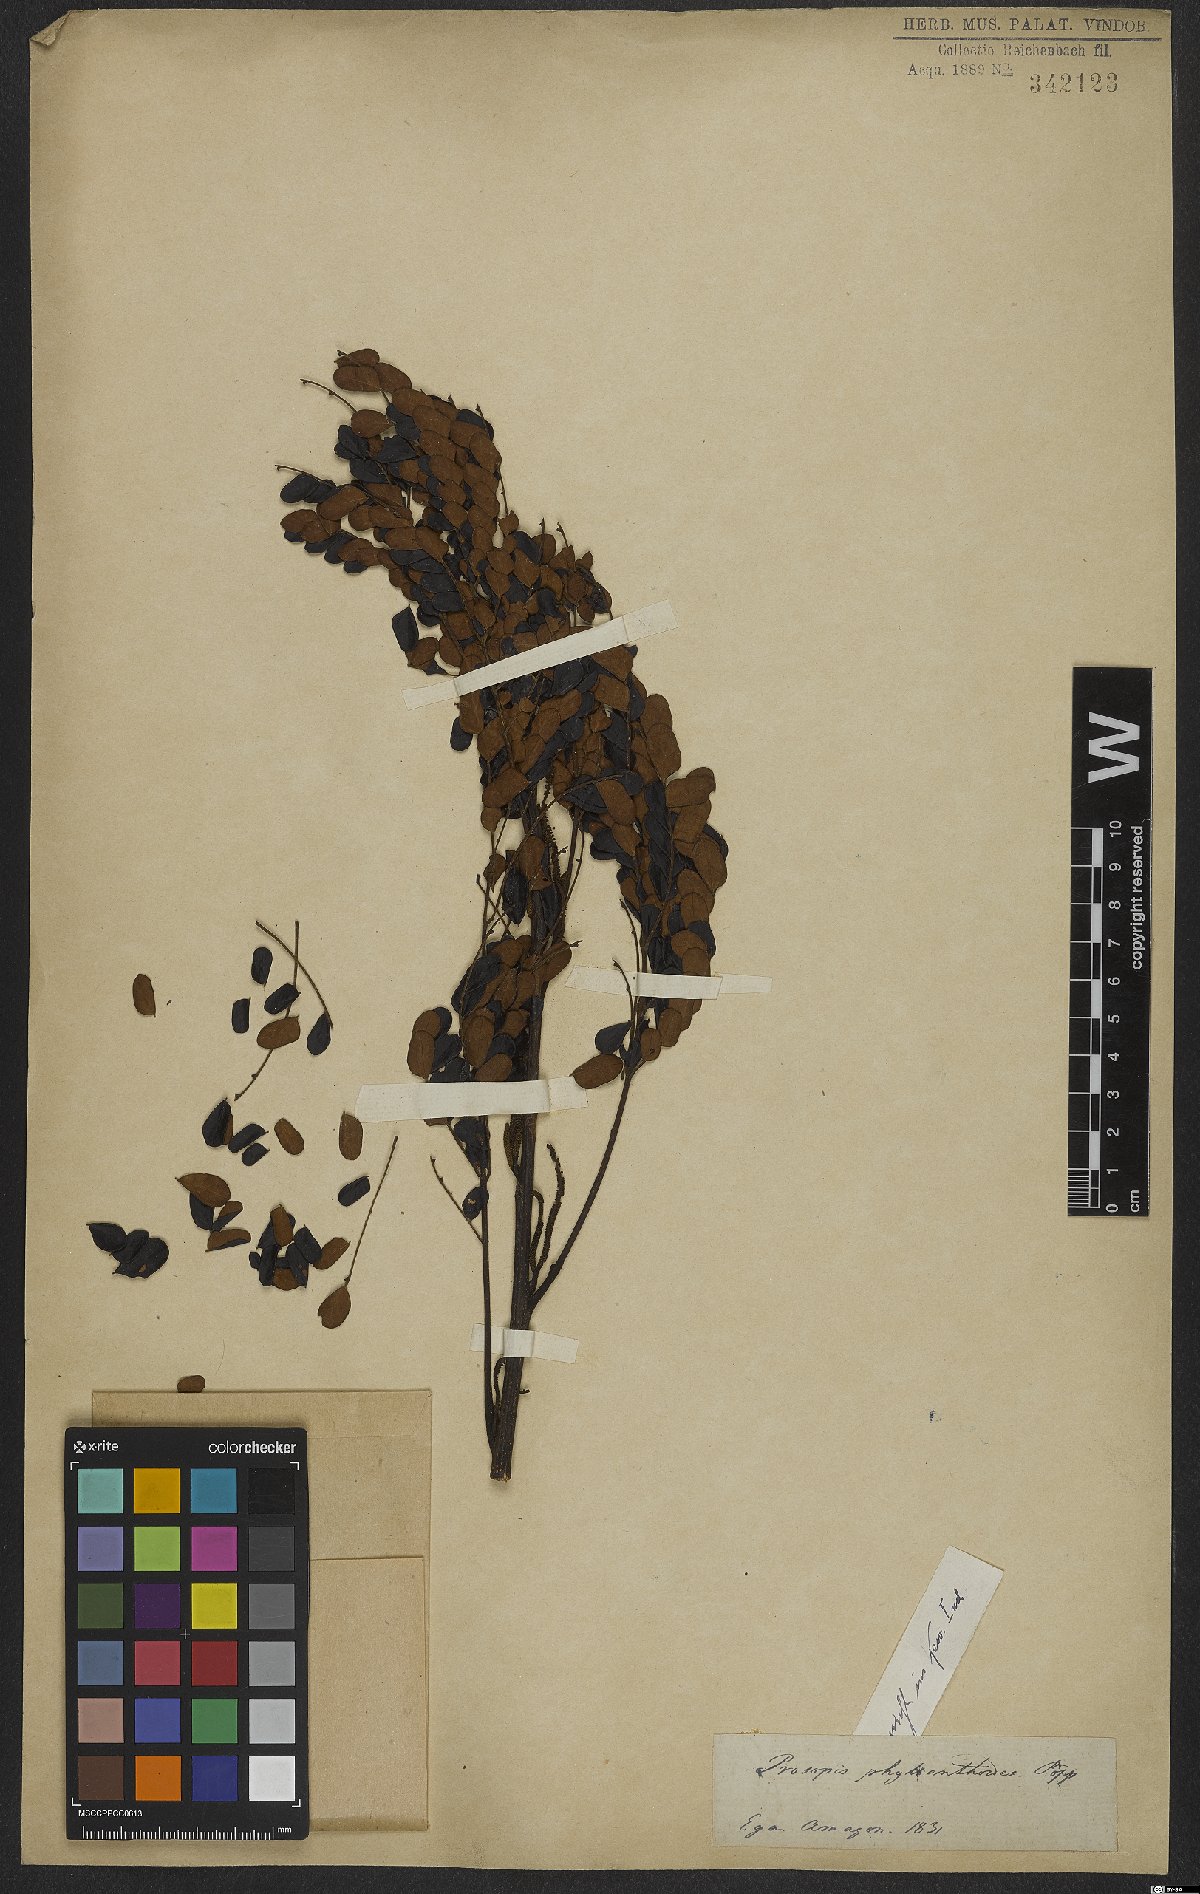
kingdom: Plantae
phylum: Tracheophyta
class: Magnoliopsida
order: Fabales
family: Fabaceae
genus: Prosopis
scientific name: Prosopis
